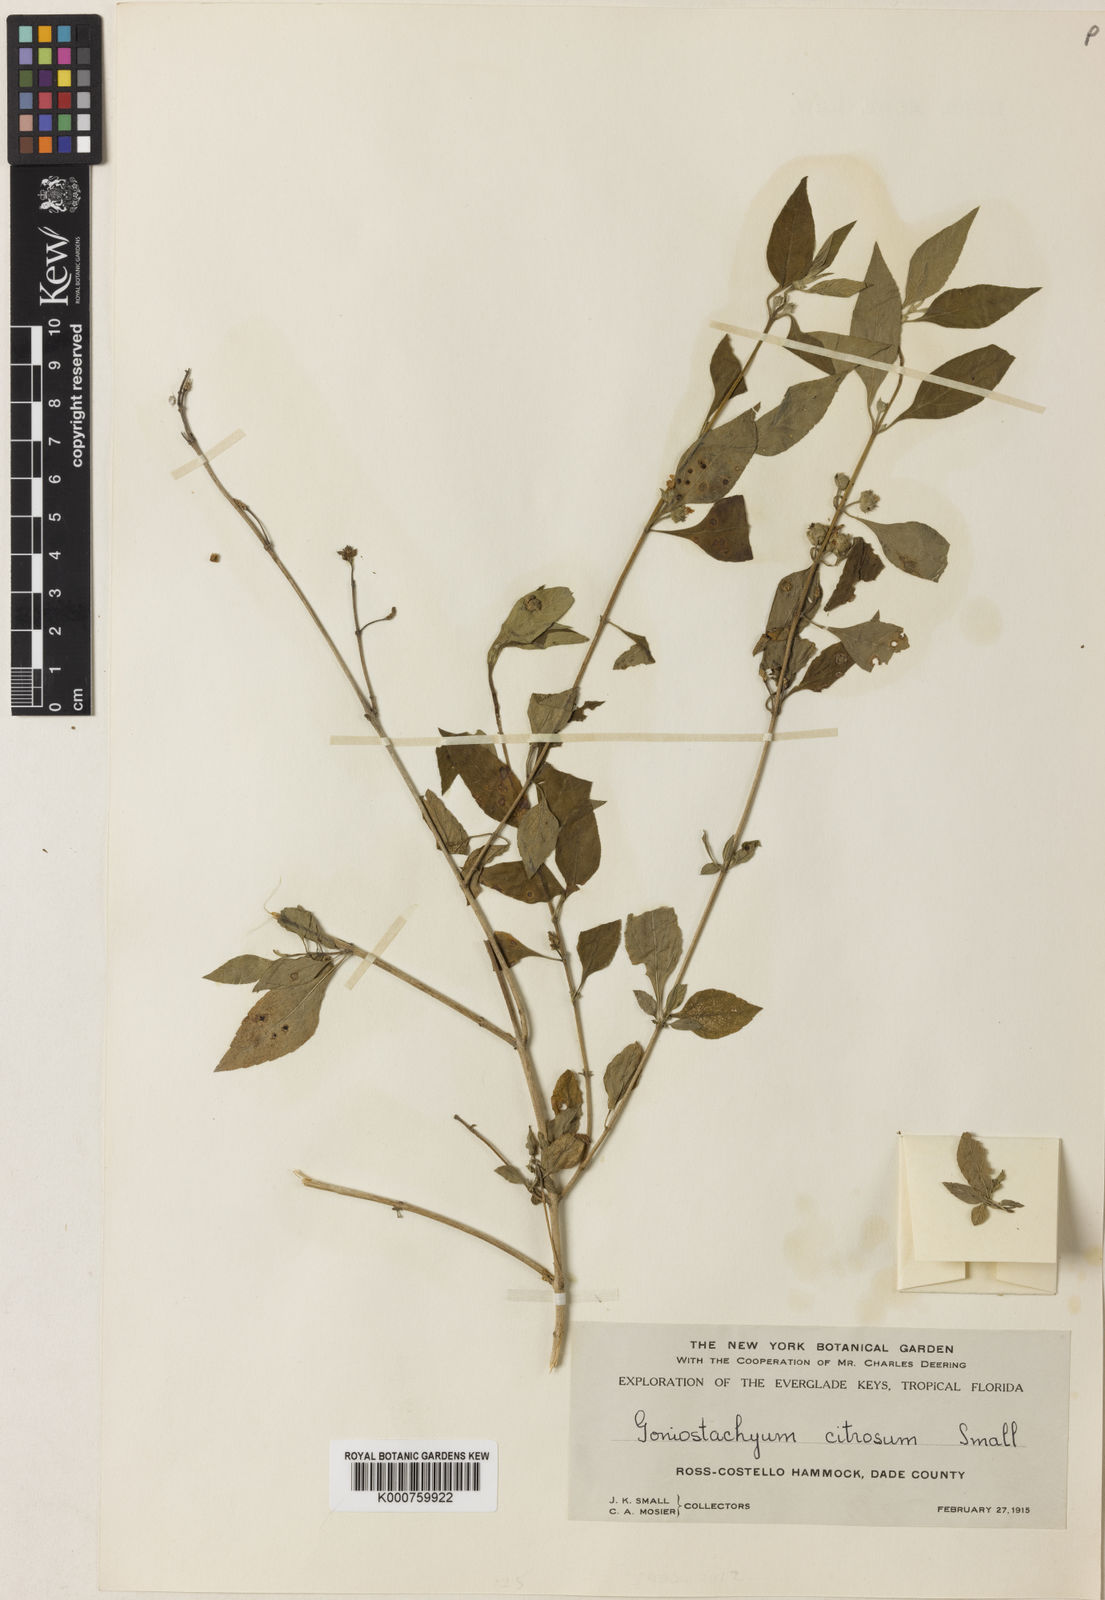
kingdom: Plantae
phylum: Tracheophyta
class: Magnoliopsida
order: Lamiales
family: Verbenaceae
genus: Lippia
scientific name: Lippia alba
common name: Bushy matgrass
